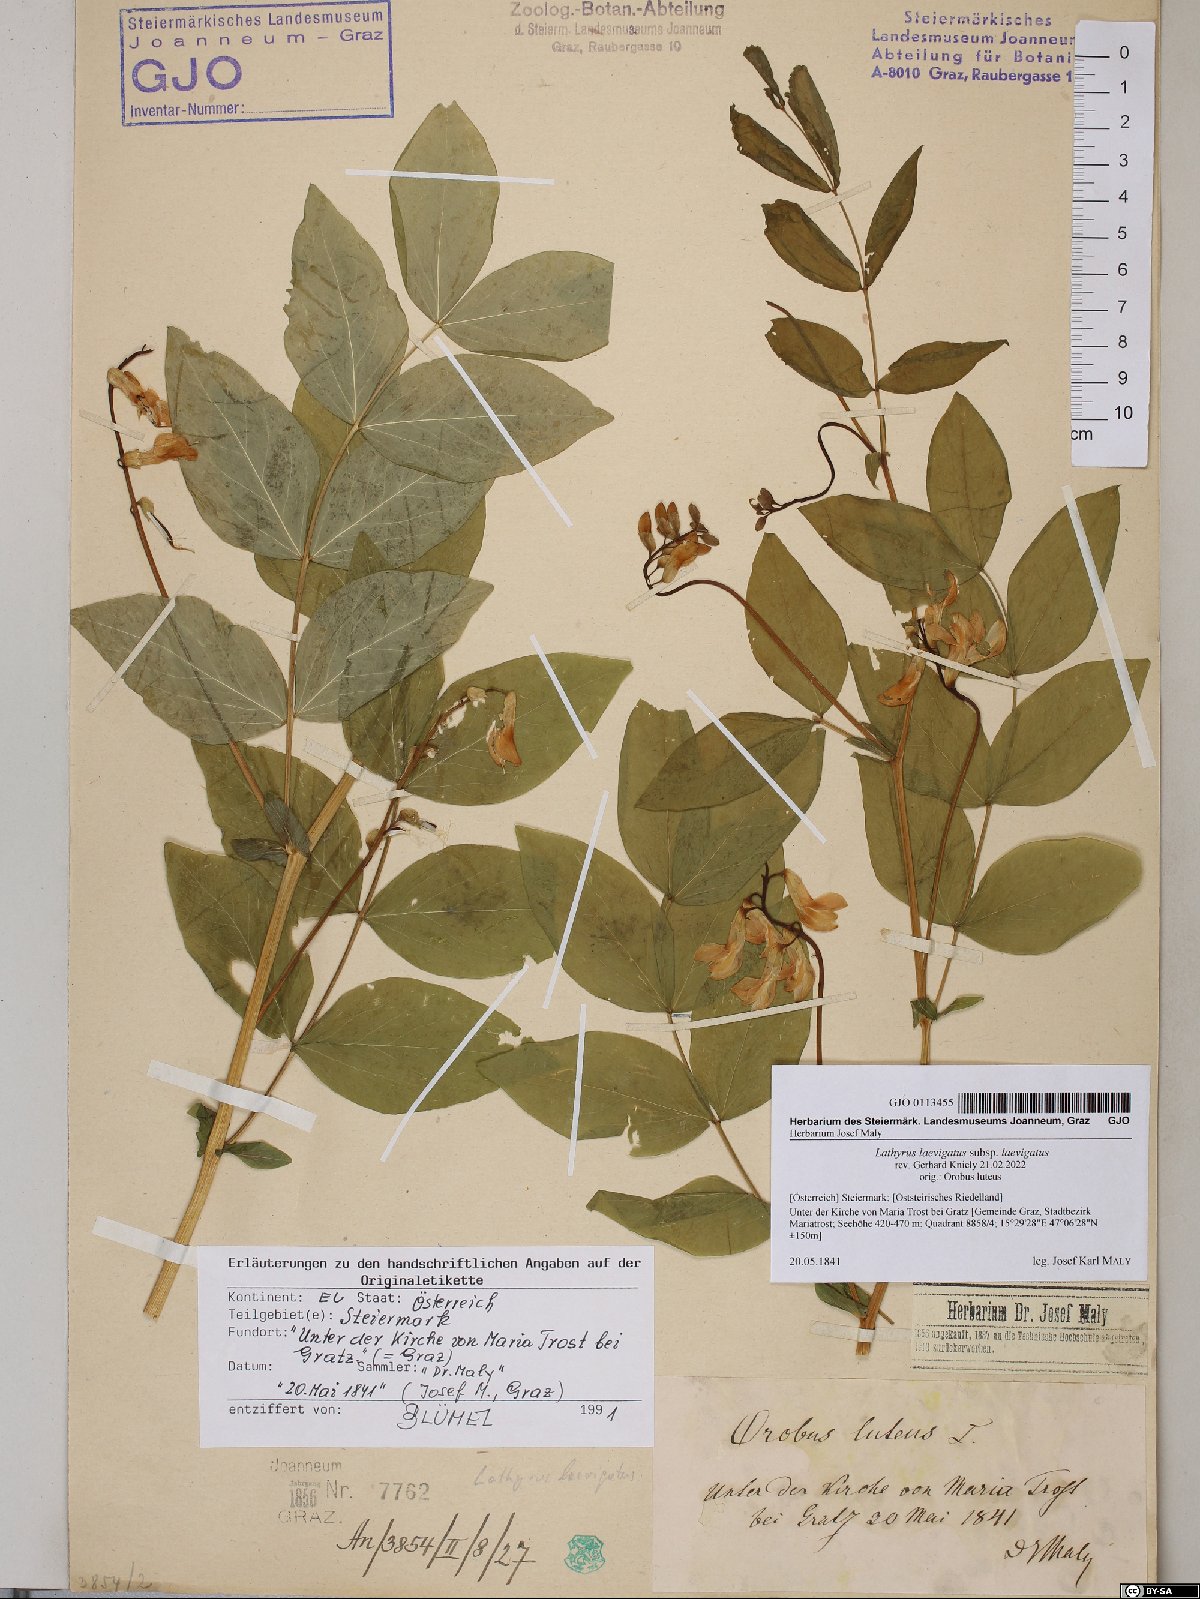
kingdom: Plantae
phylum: Tracheophyta
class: Magnoliopsida
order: Fabales
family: Fabaceae
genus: Lathyrus
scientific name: Lathyrus laevigatus
